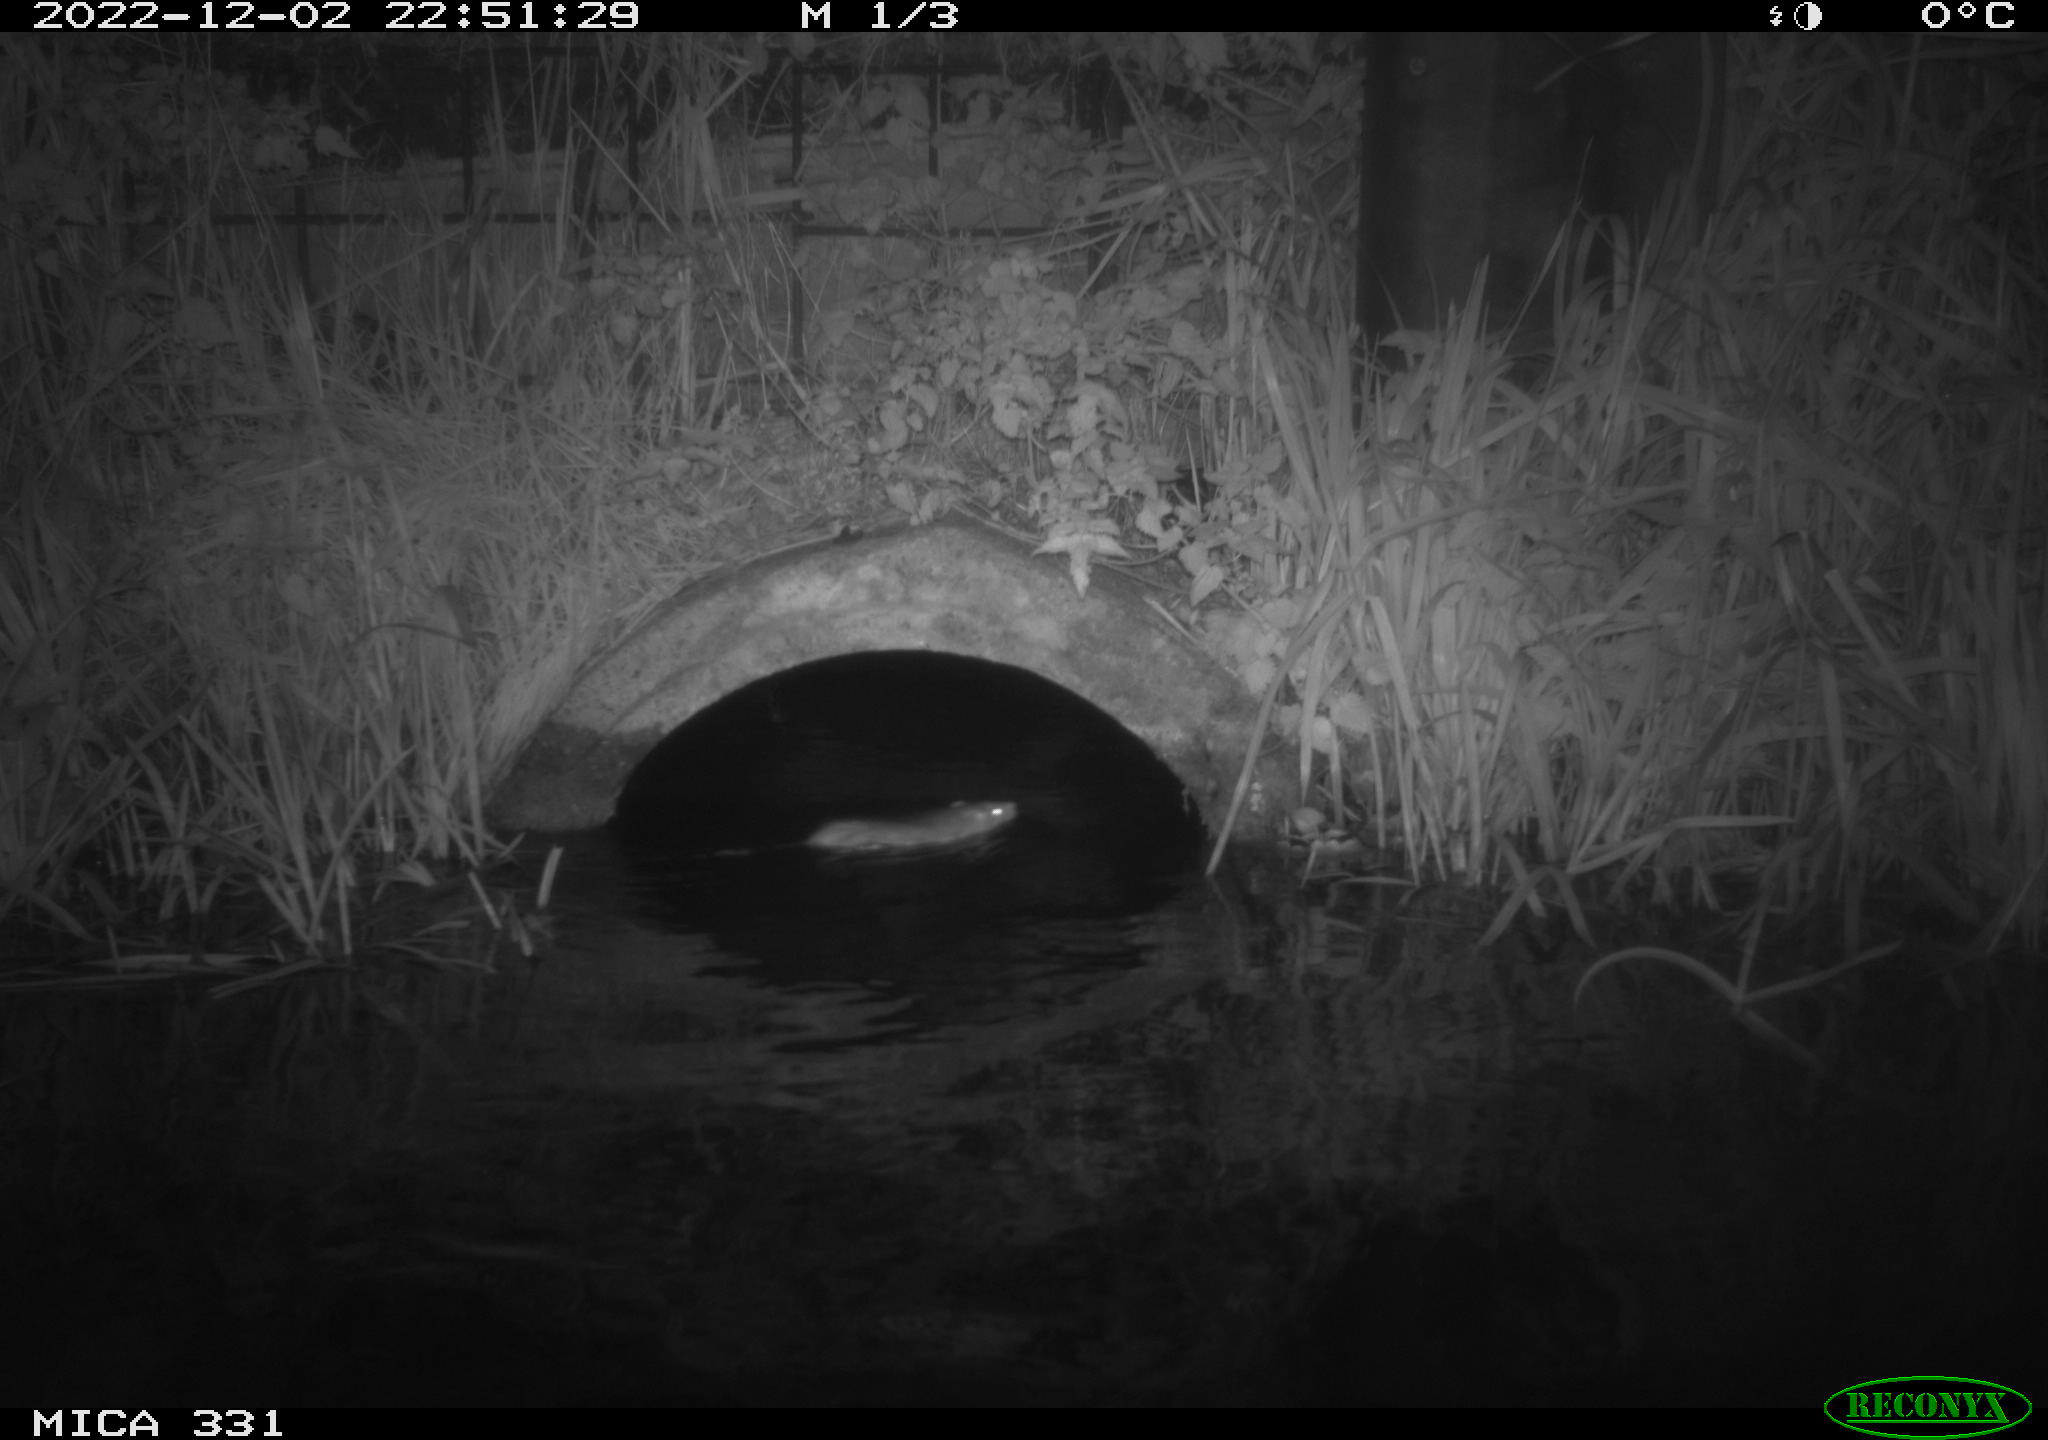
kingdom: Animalia
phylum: Chordata
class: Mammalia
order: Rodentia
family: Muridae
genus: Rattus
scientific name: Rattus norvegicus
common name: Brown rat
